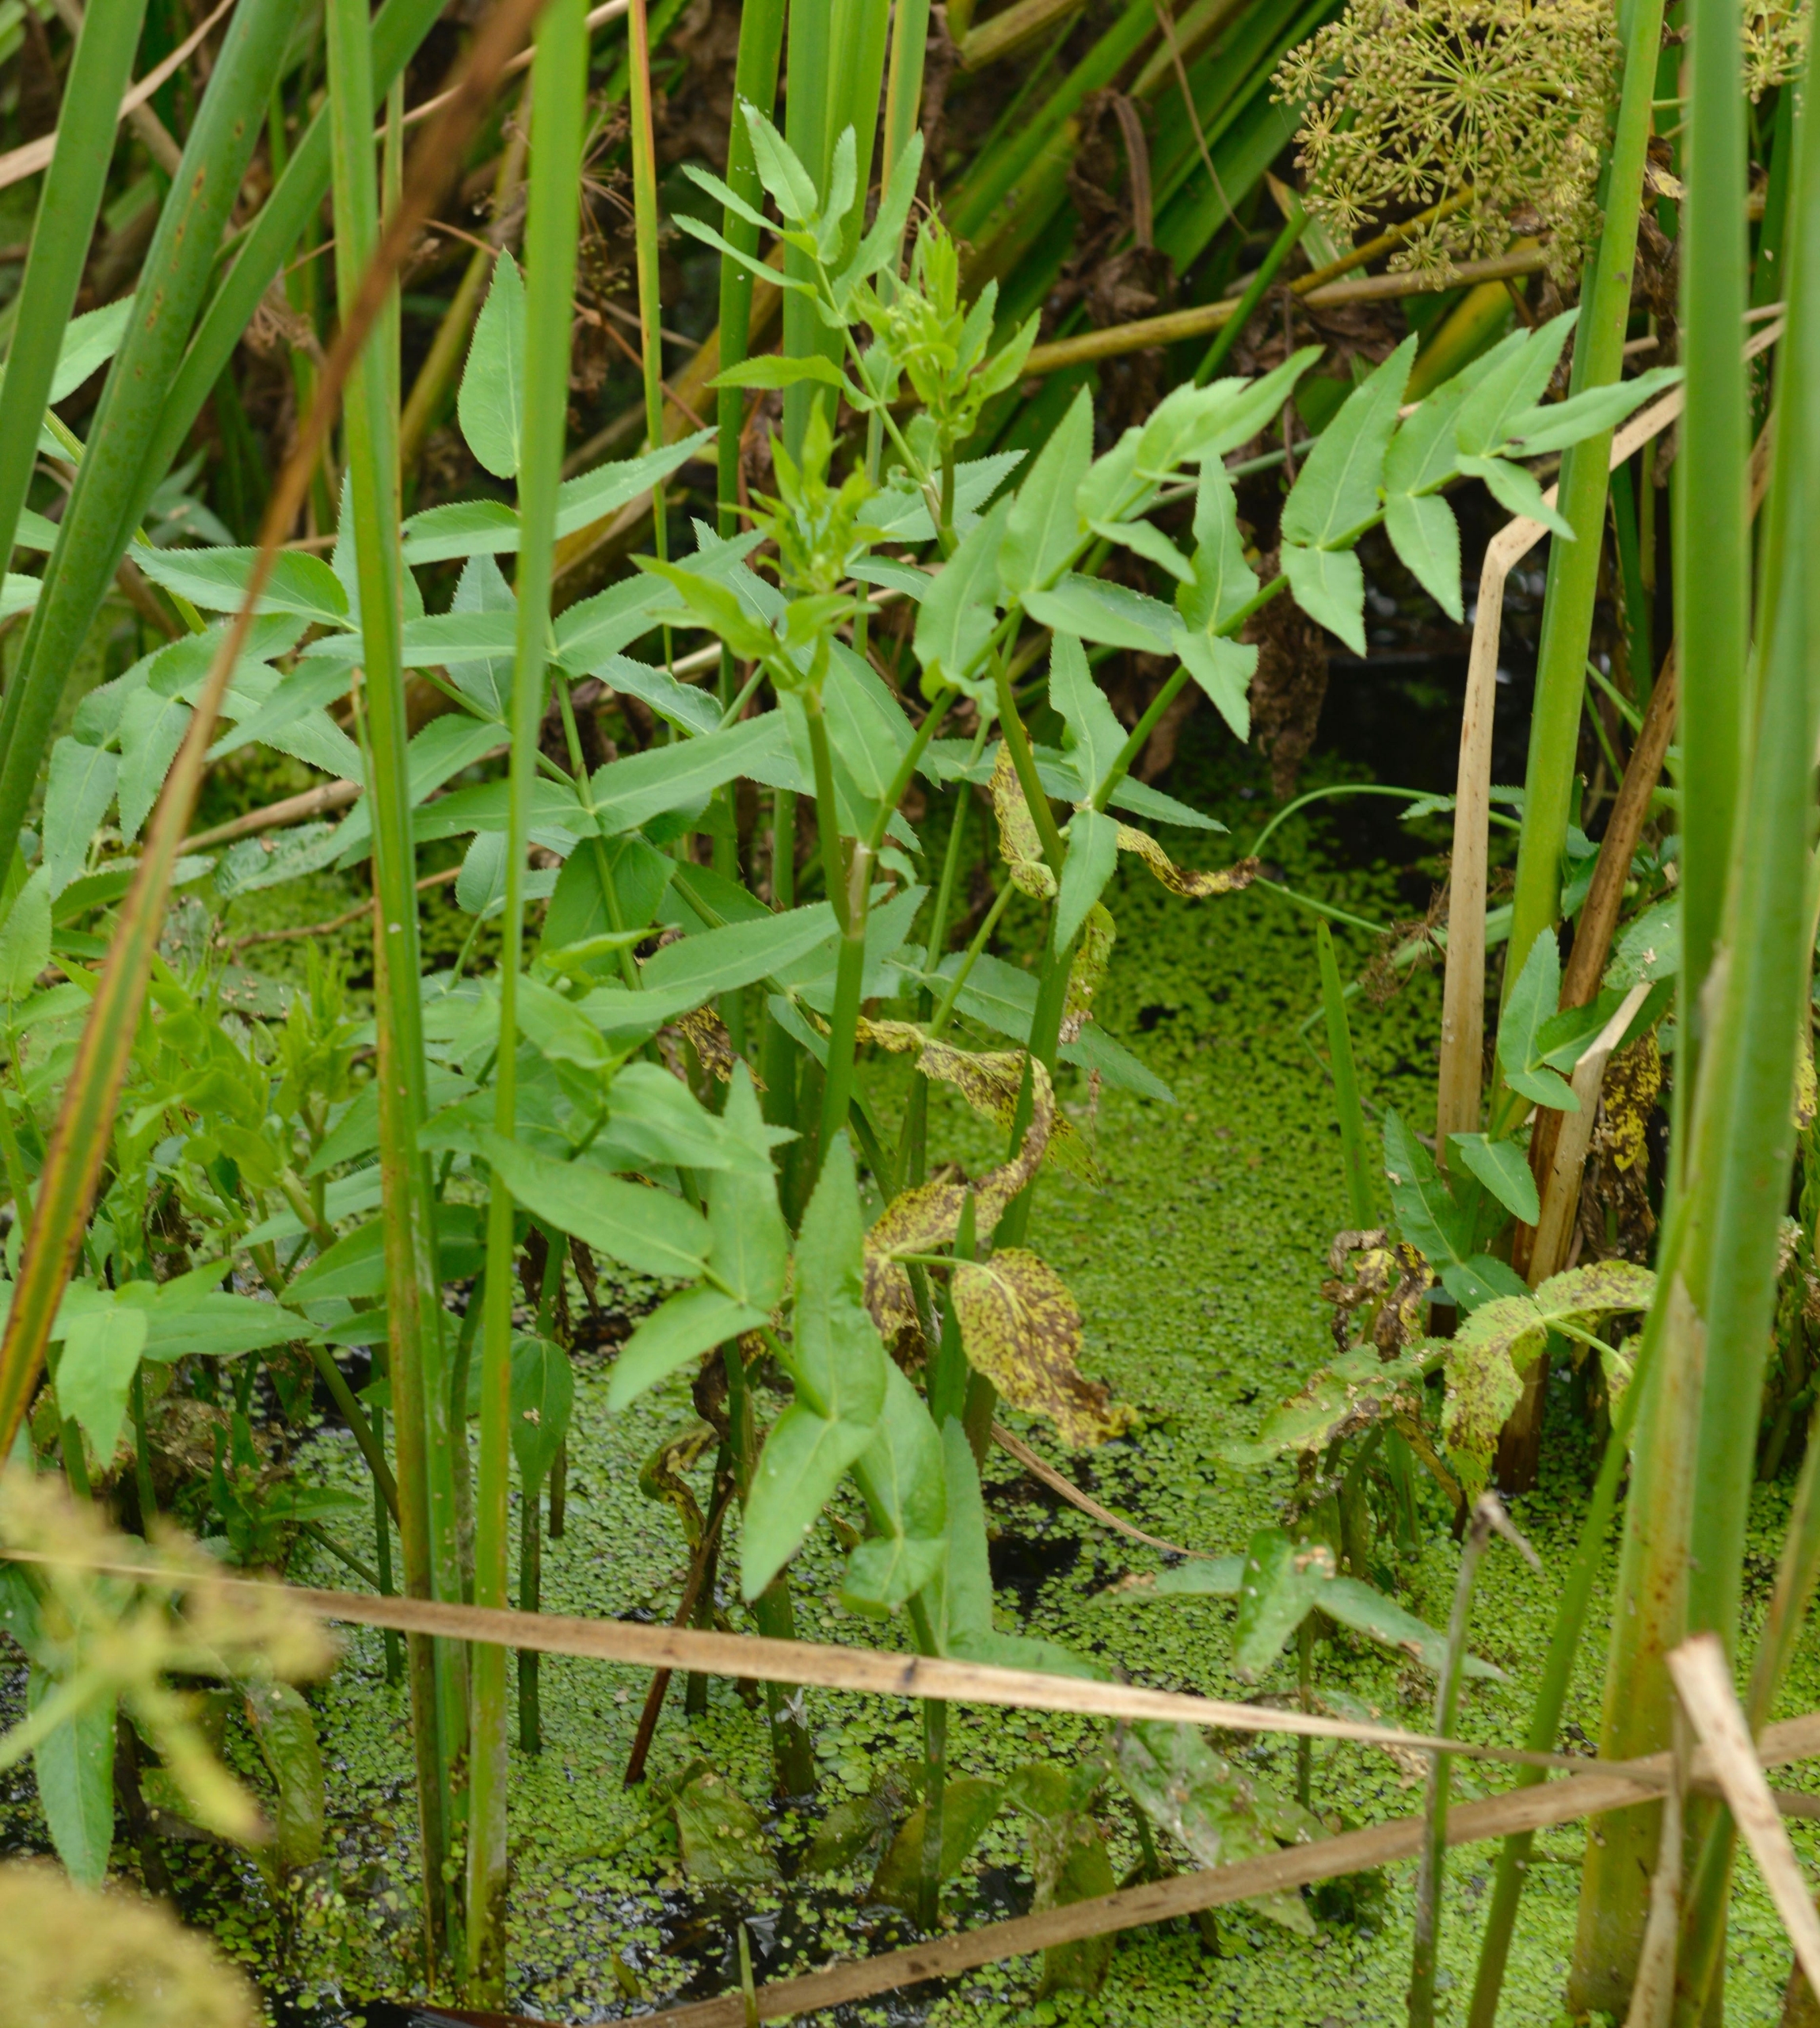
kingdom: Plantae
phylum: Tracheophyta
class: Magnoliopsida
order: Apiales
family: Apiaceae
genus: Sium
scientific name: Sium latifolium
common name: Bredbladet mærke
